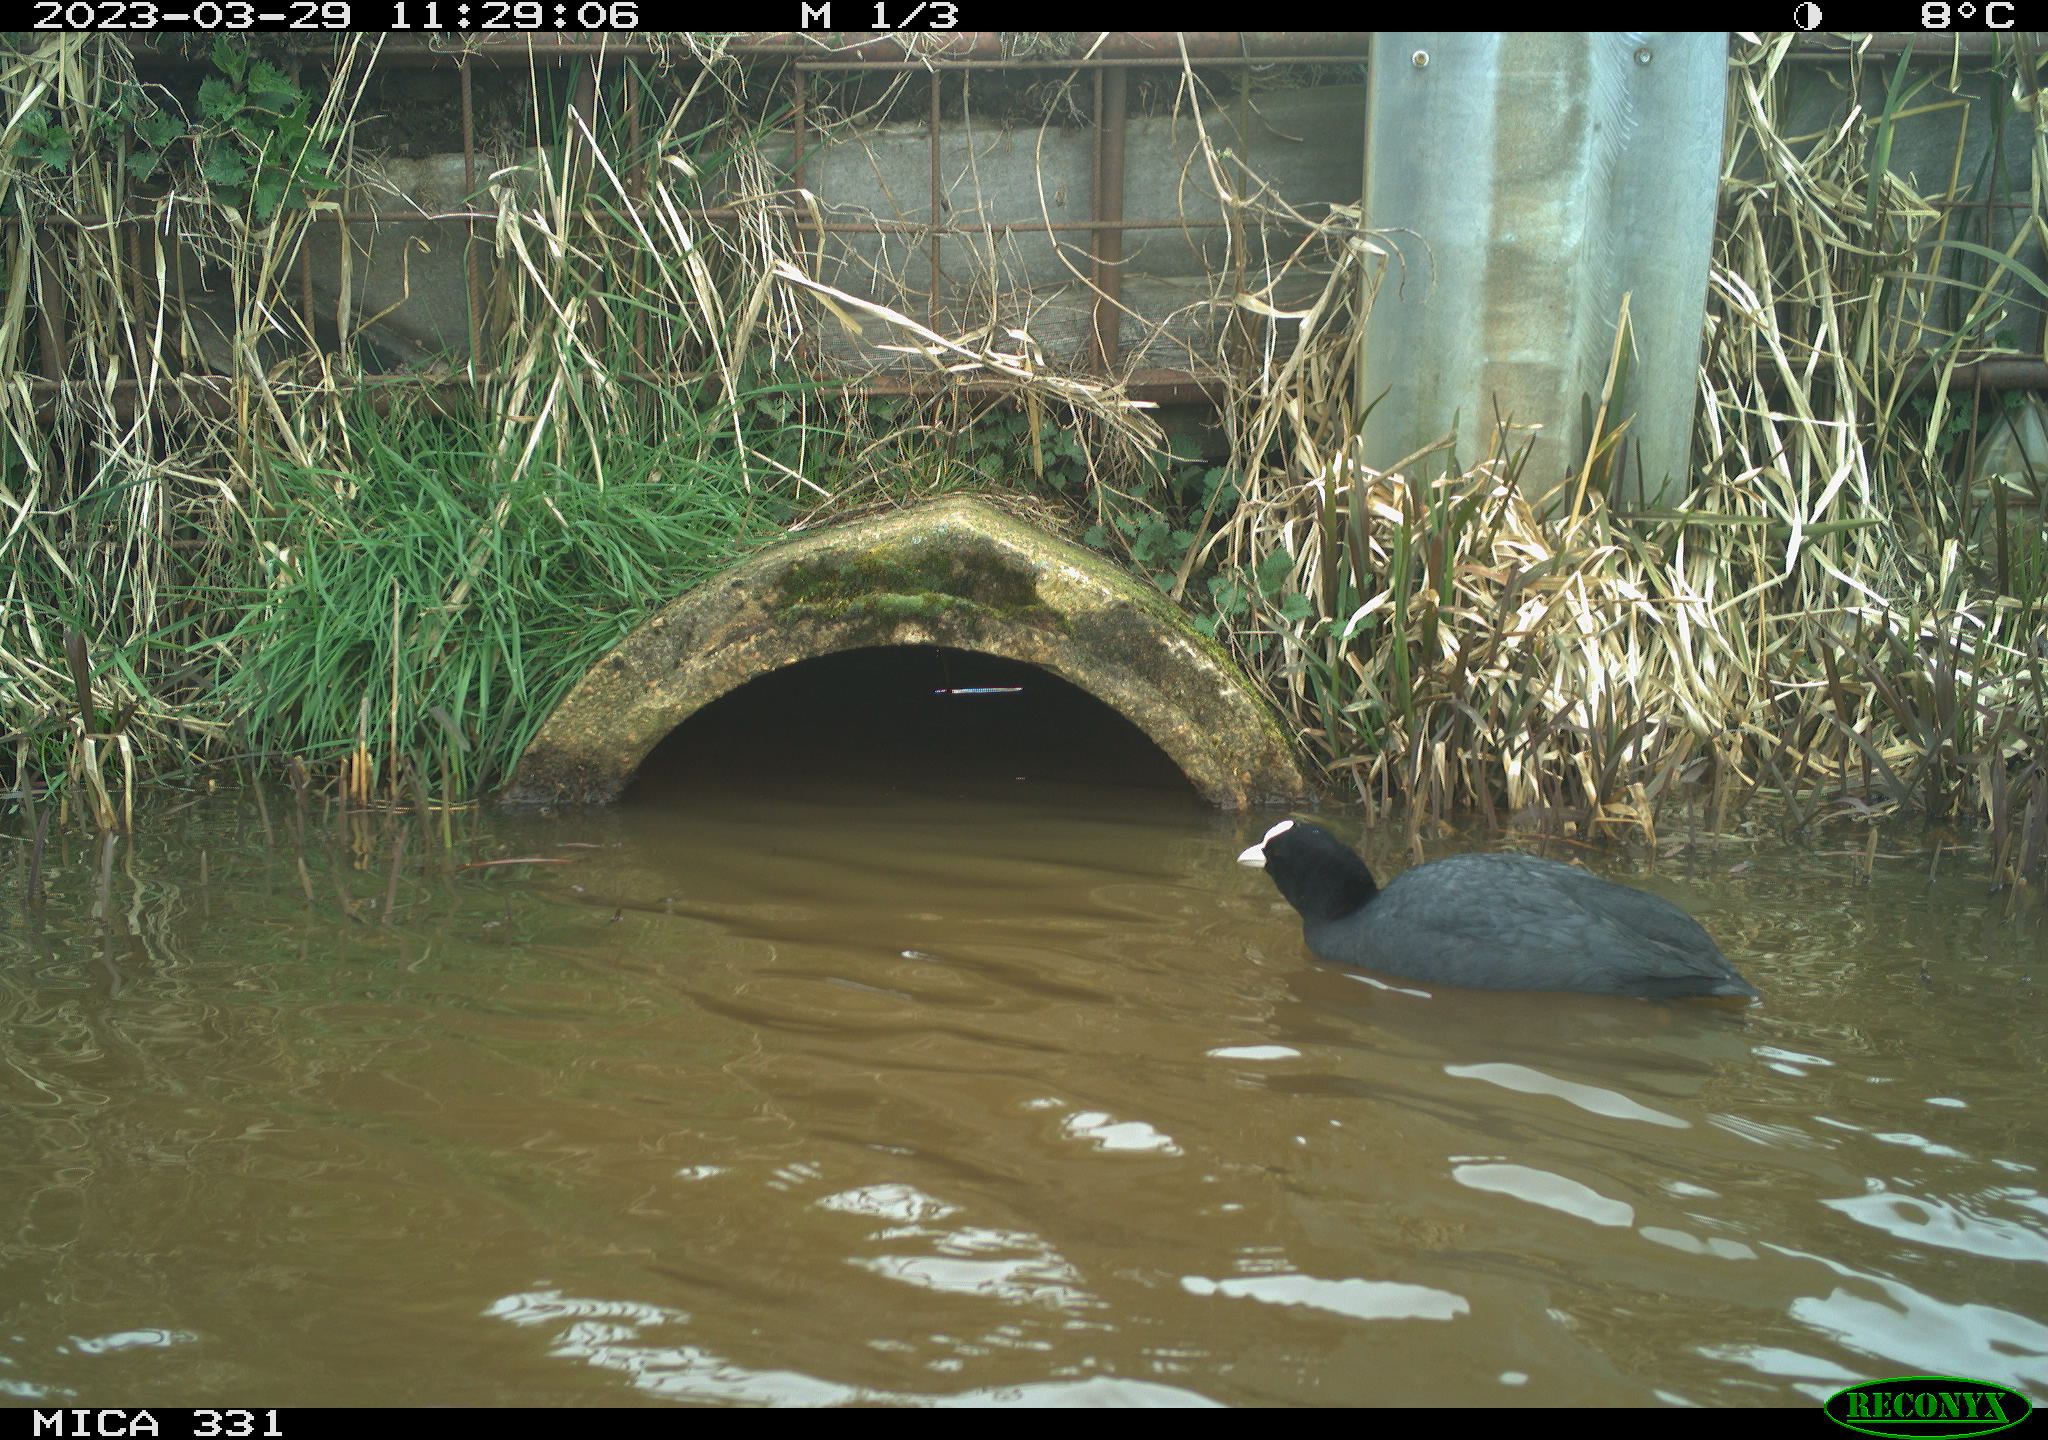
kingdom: Animalia
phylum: Chordata
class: Aves
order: Gruiformes
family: Rallidae
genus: Fulica
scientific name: Fulica atra
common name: Eurasian coot
